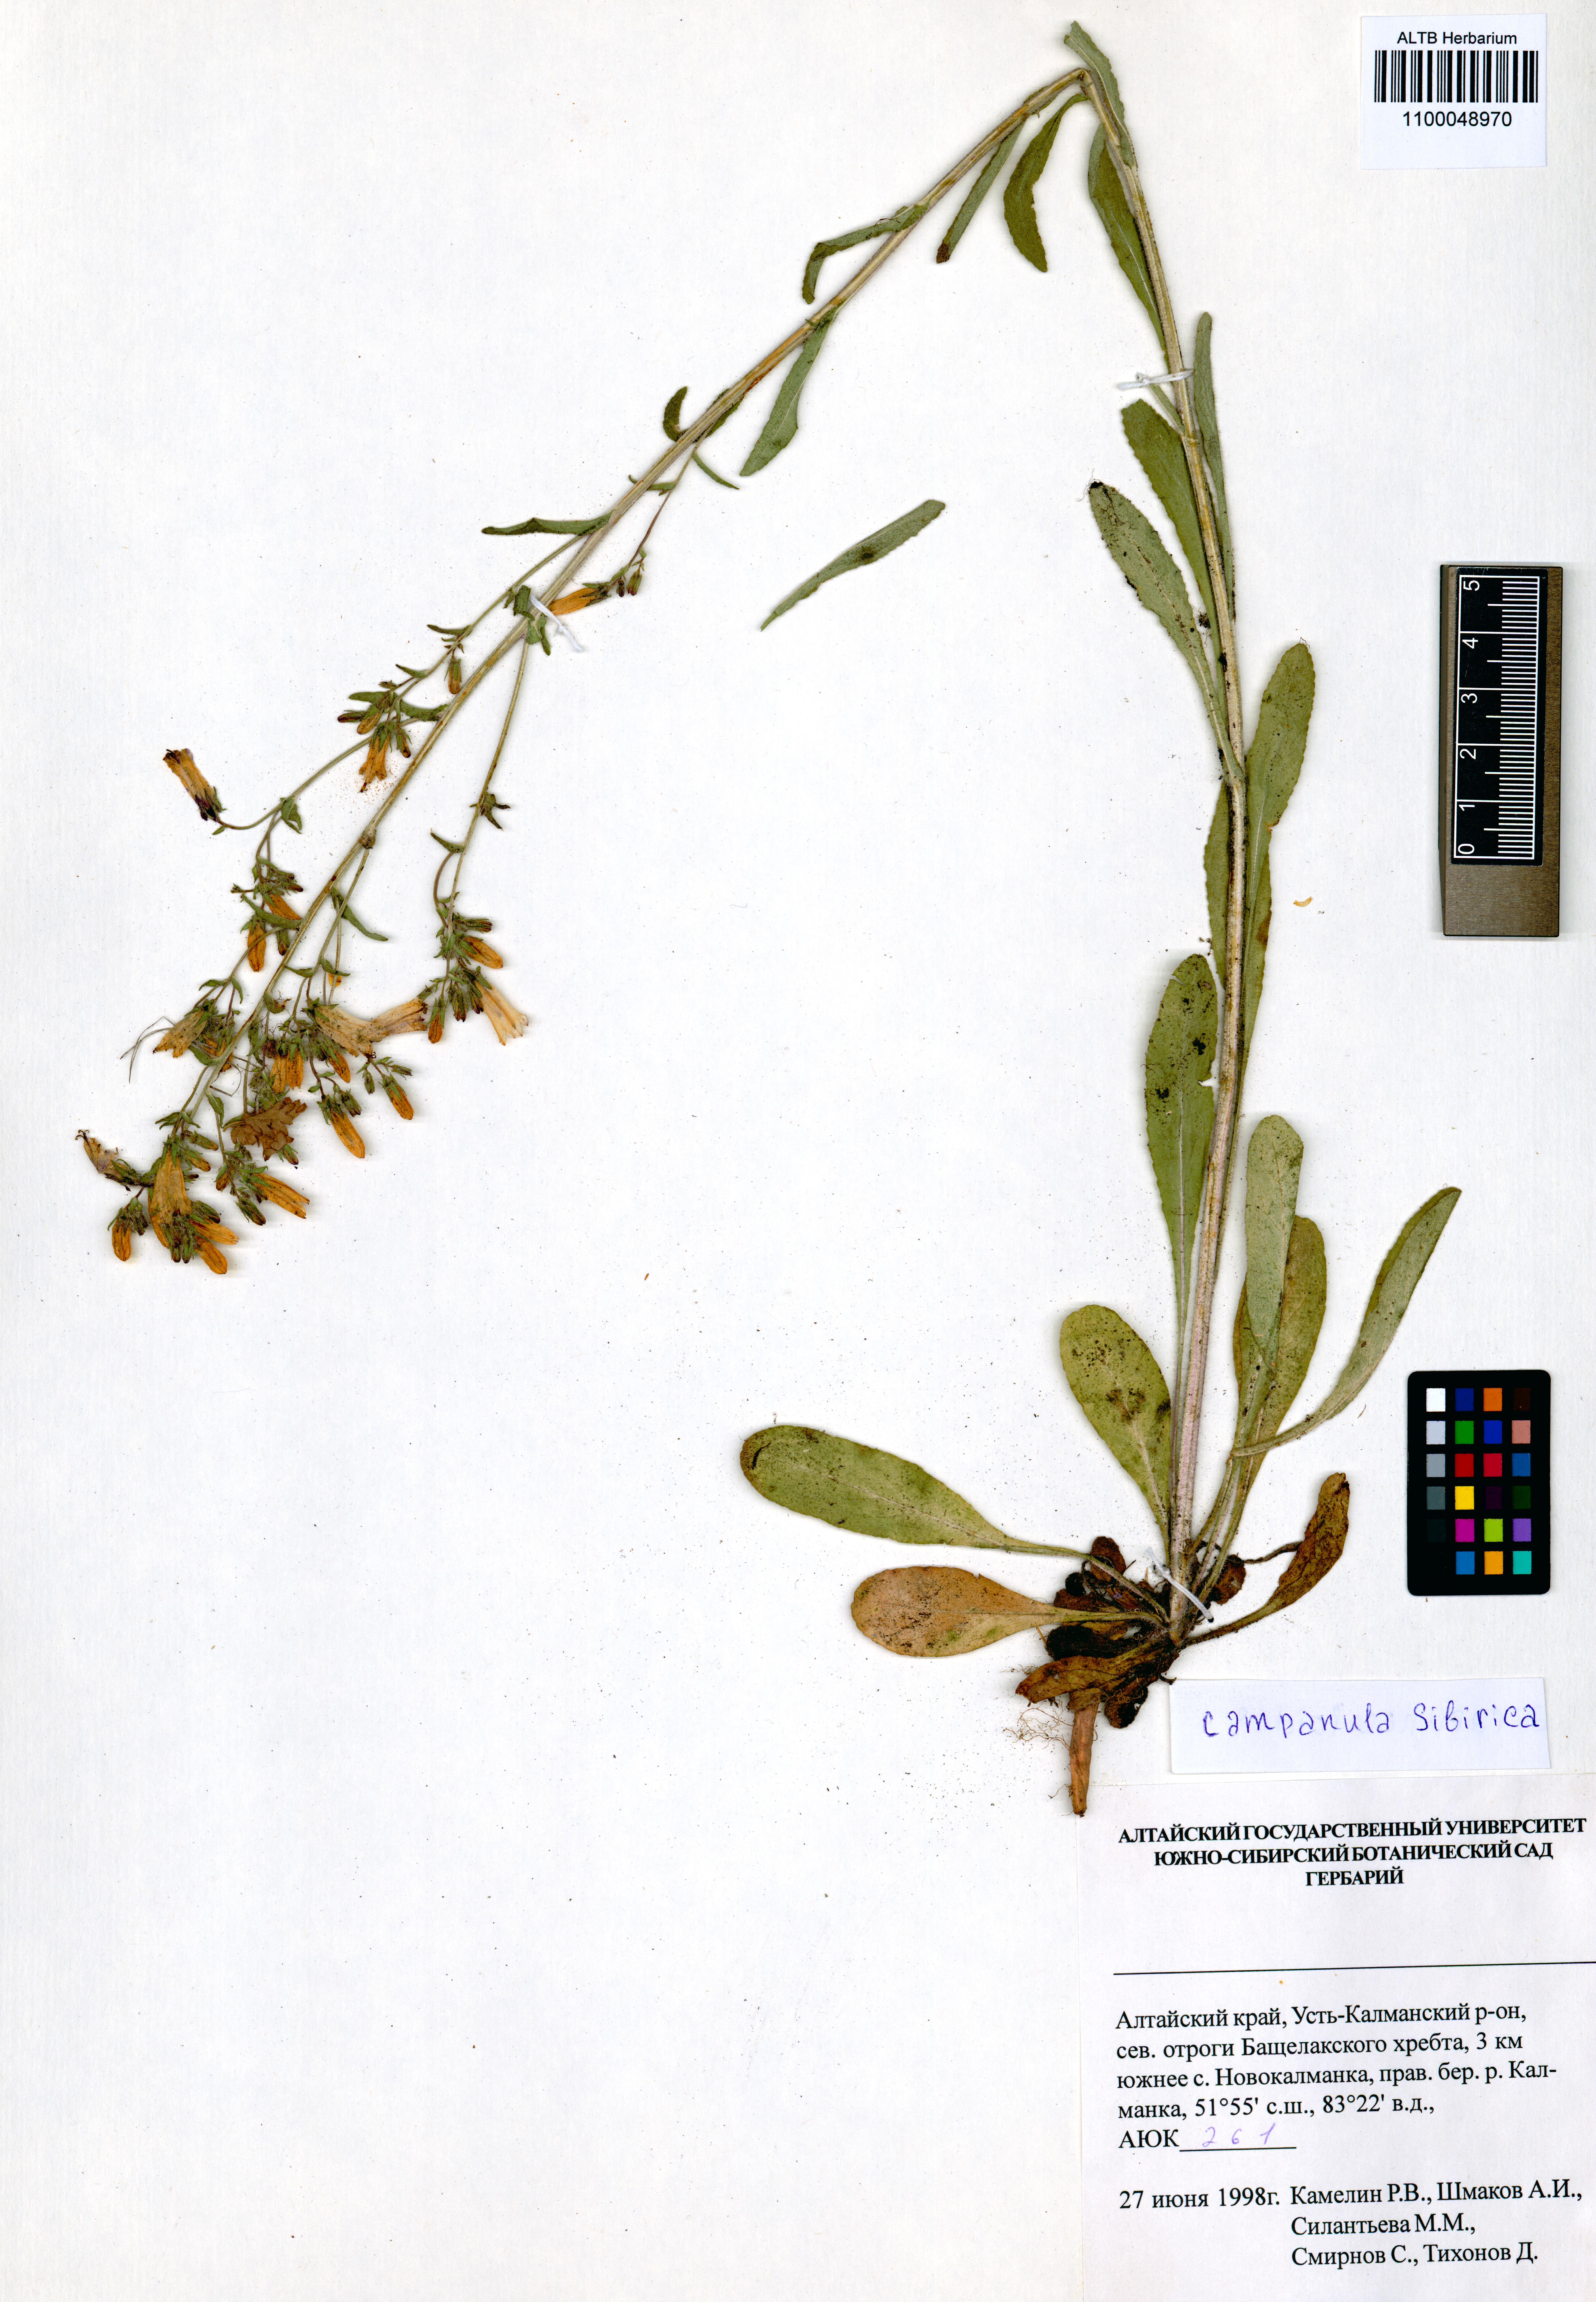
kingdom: Plantae
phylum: Tracheophyta
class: Magnoliopsida
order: Asterales
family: Campanulaceae
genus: Campanula
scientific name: Campanula sibirica
